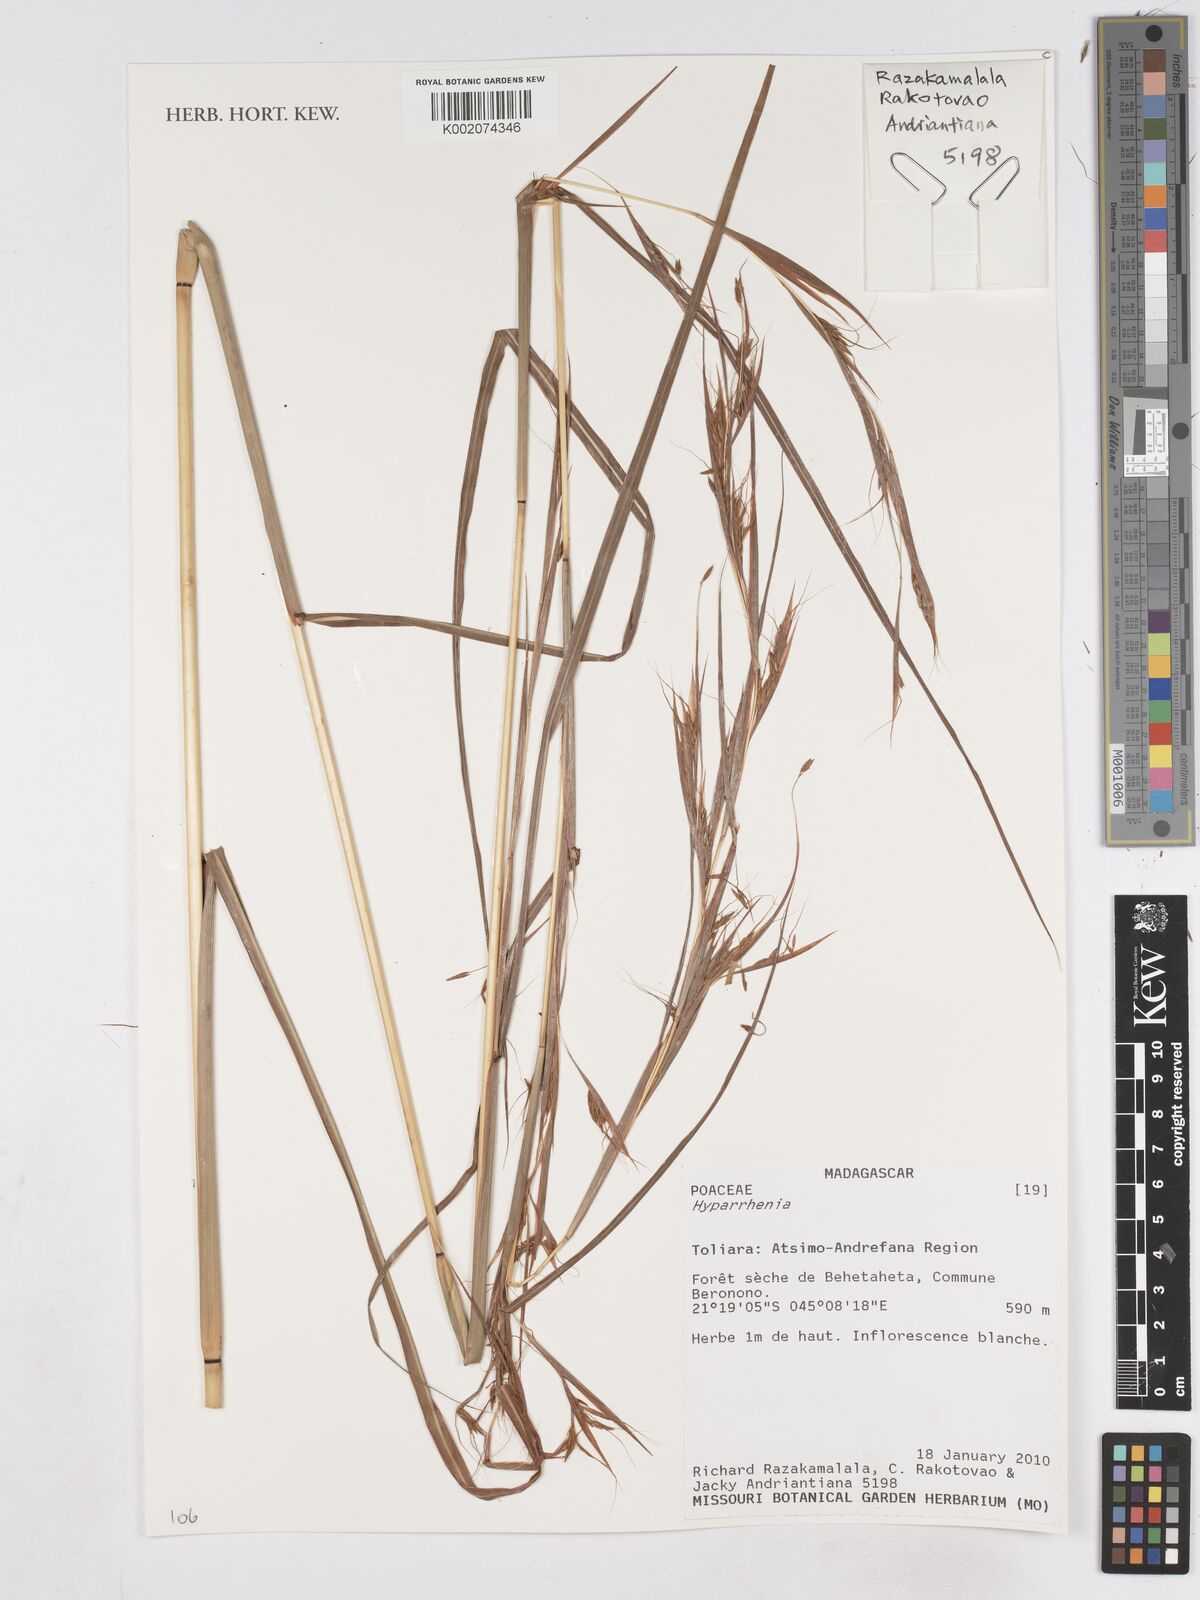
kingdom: Plantae
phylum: Tracheophyta
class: Liliopsida
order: Poales
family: Poaceae
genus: Hyparrhenia
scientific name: Hyparrhenia
